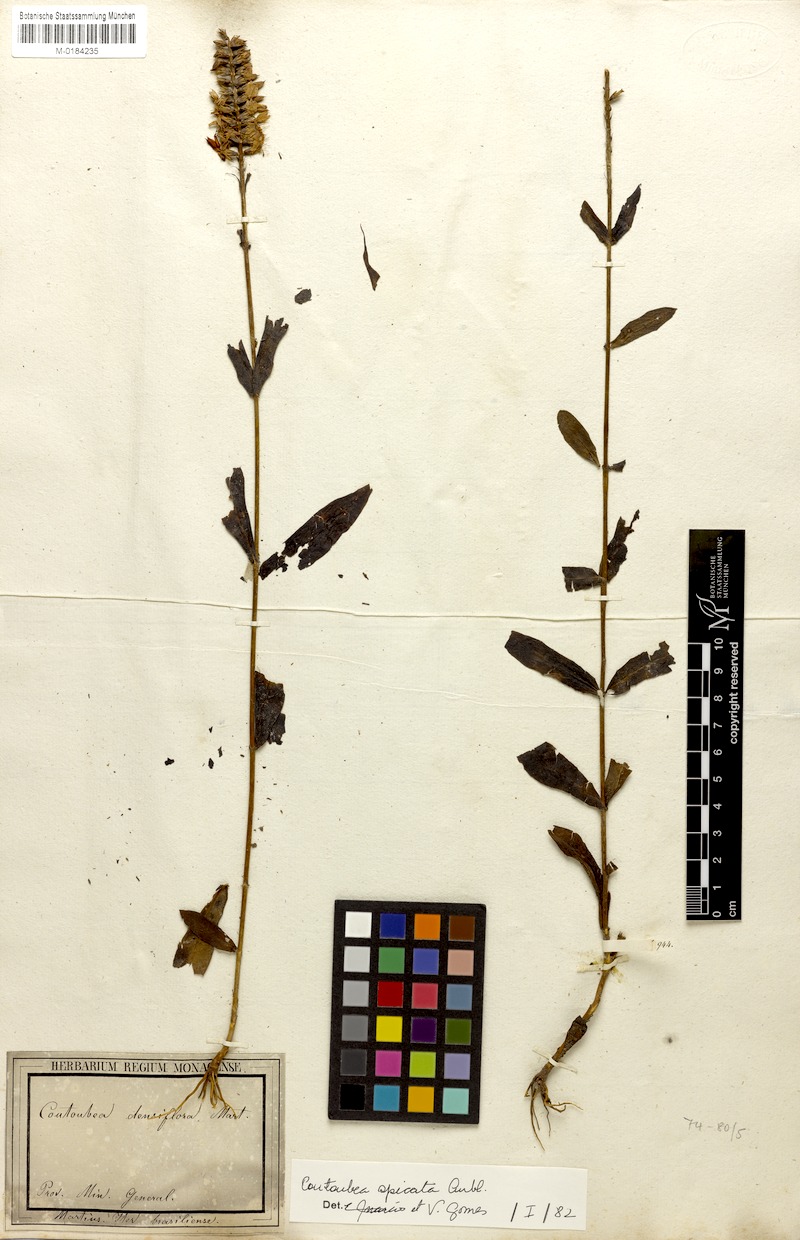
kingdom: Plantae
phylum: Tracheophyta
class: Magnoliopsida
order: Gentianales
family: Gentianaceae
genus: Coutoubea
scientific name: Coutoubea spicata
